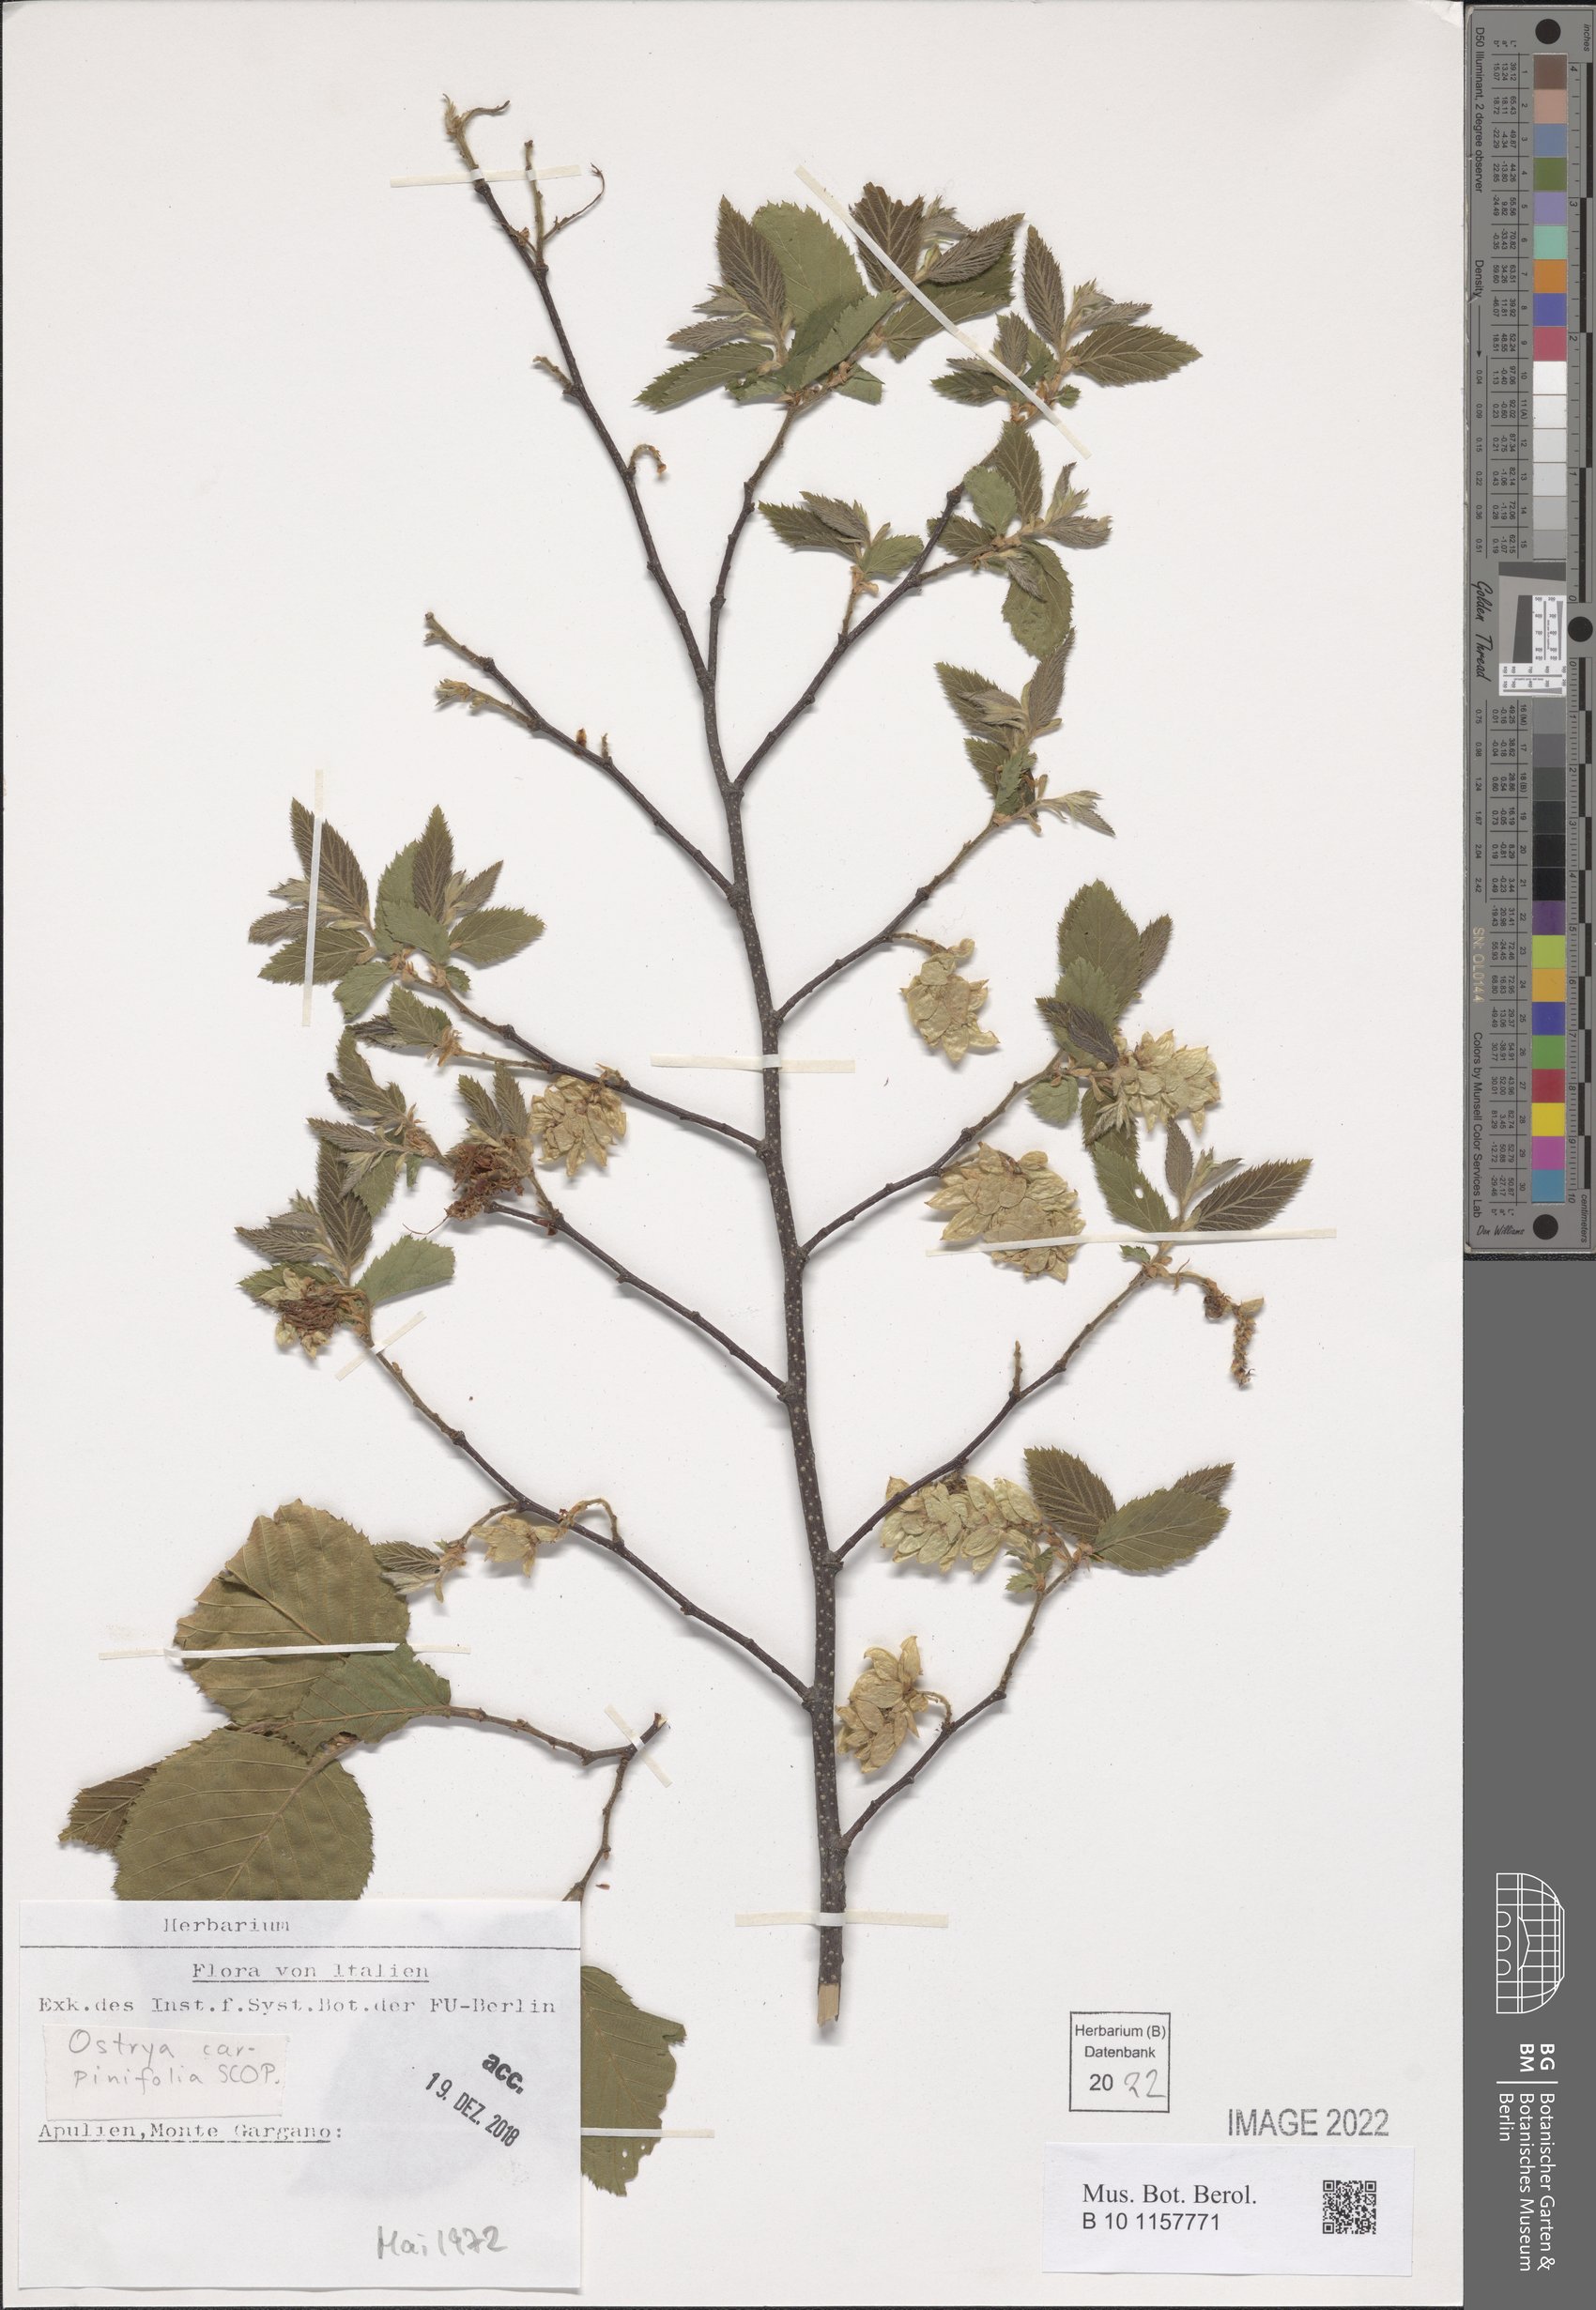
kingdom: Plantae
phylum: Tracheophyta
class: Magnoliopsida
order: Fagales
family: Betulaceae
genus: Ostrya
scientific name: Ostrya carpinifolia
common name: European hop-hornbeam
